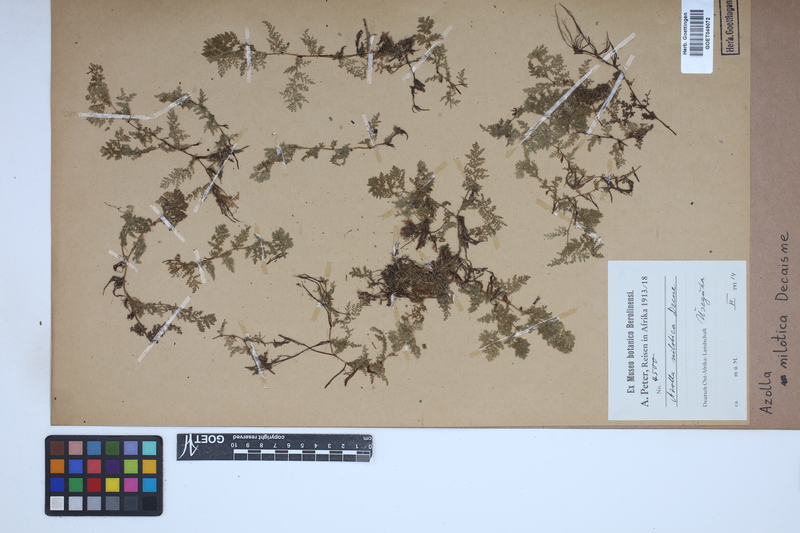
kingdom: Plantae
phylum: Tracheophyta
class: Polypodiopsida
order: Salviniales
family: Salviniaceae
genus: Azolla
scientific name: Azolla nilotica
